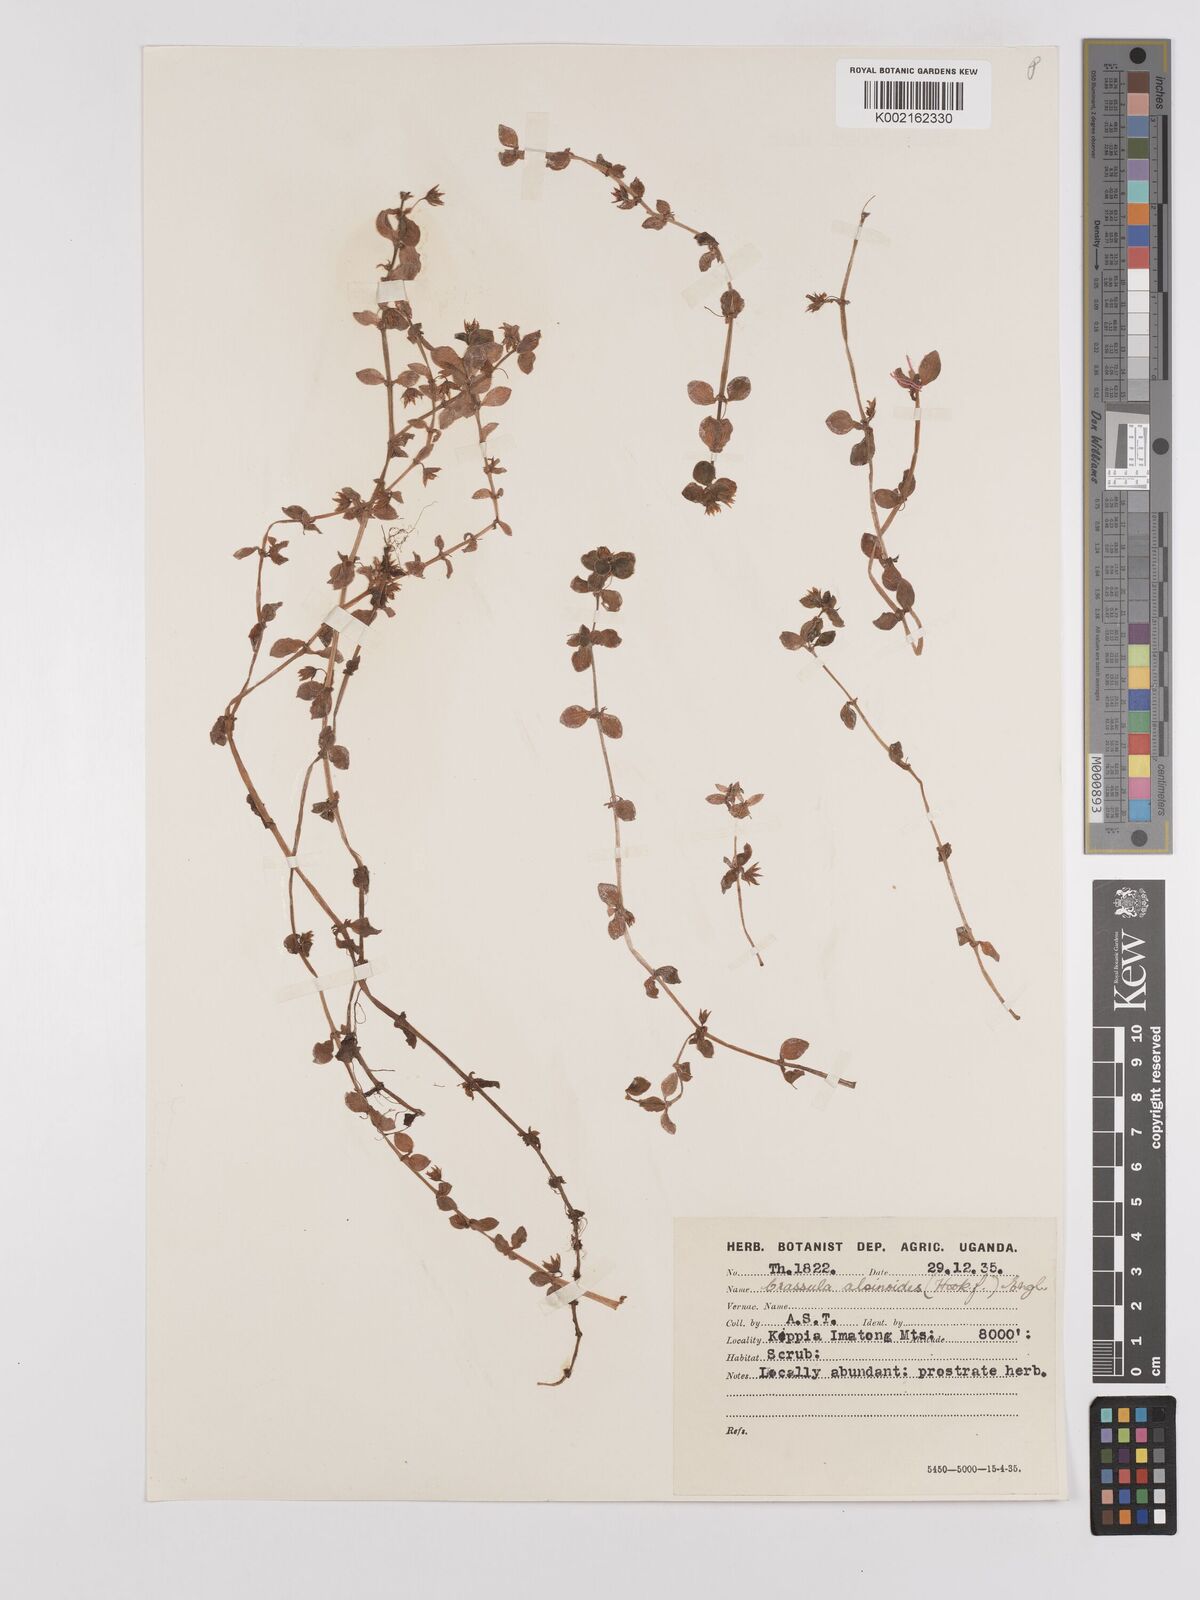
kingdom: Plantae
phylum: Tracheophyta
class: Magnoliopsida
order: Saxifragales
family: Crassulaceae
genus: Crassula
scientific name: Crassula alsinoides
